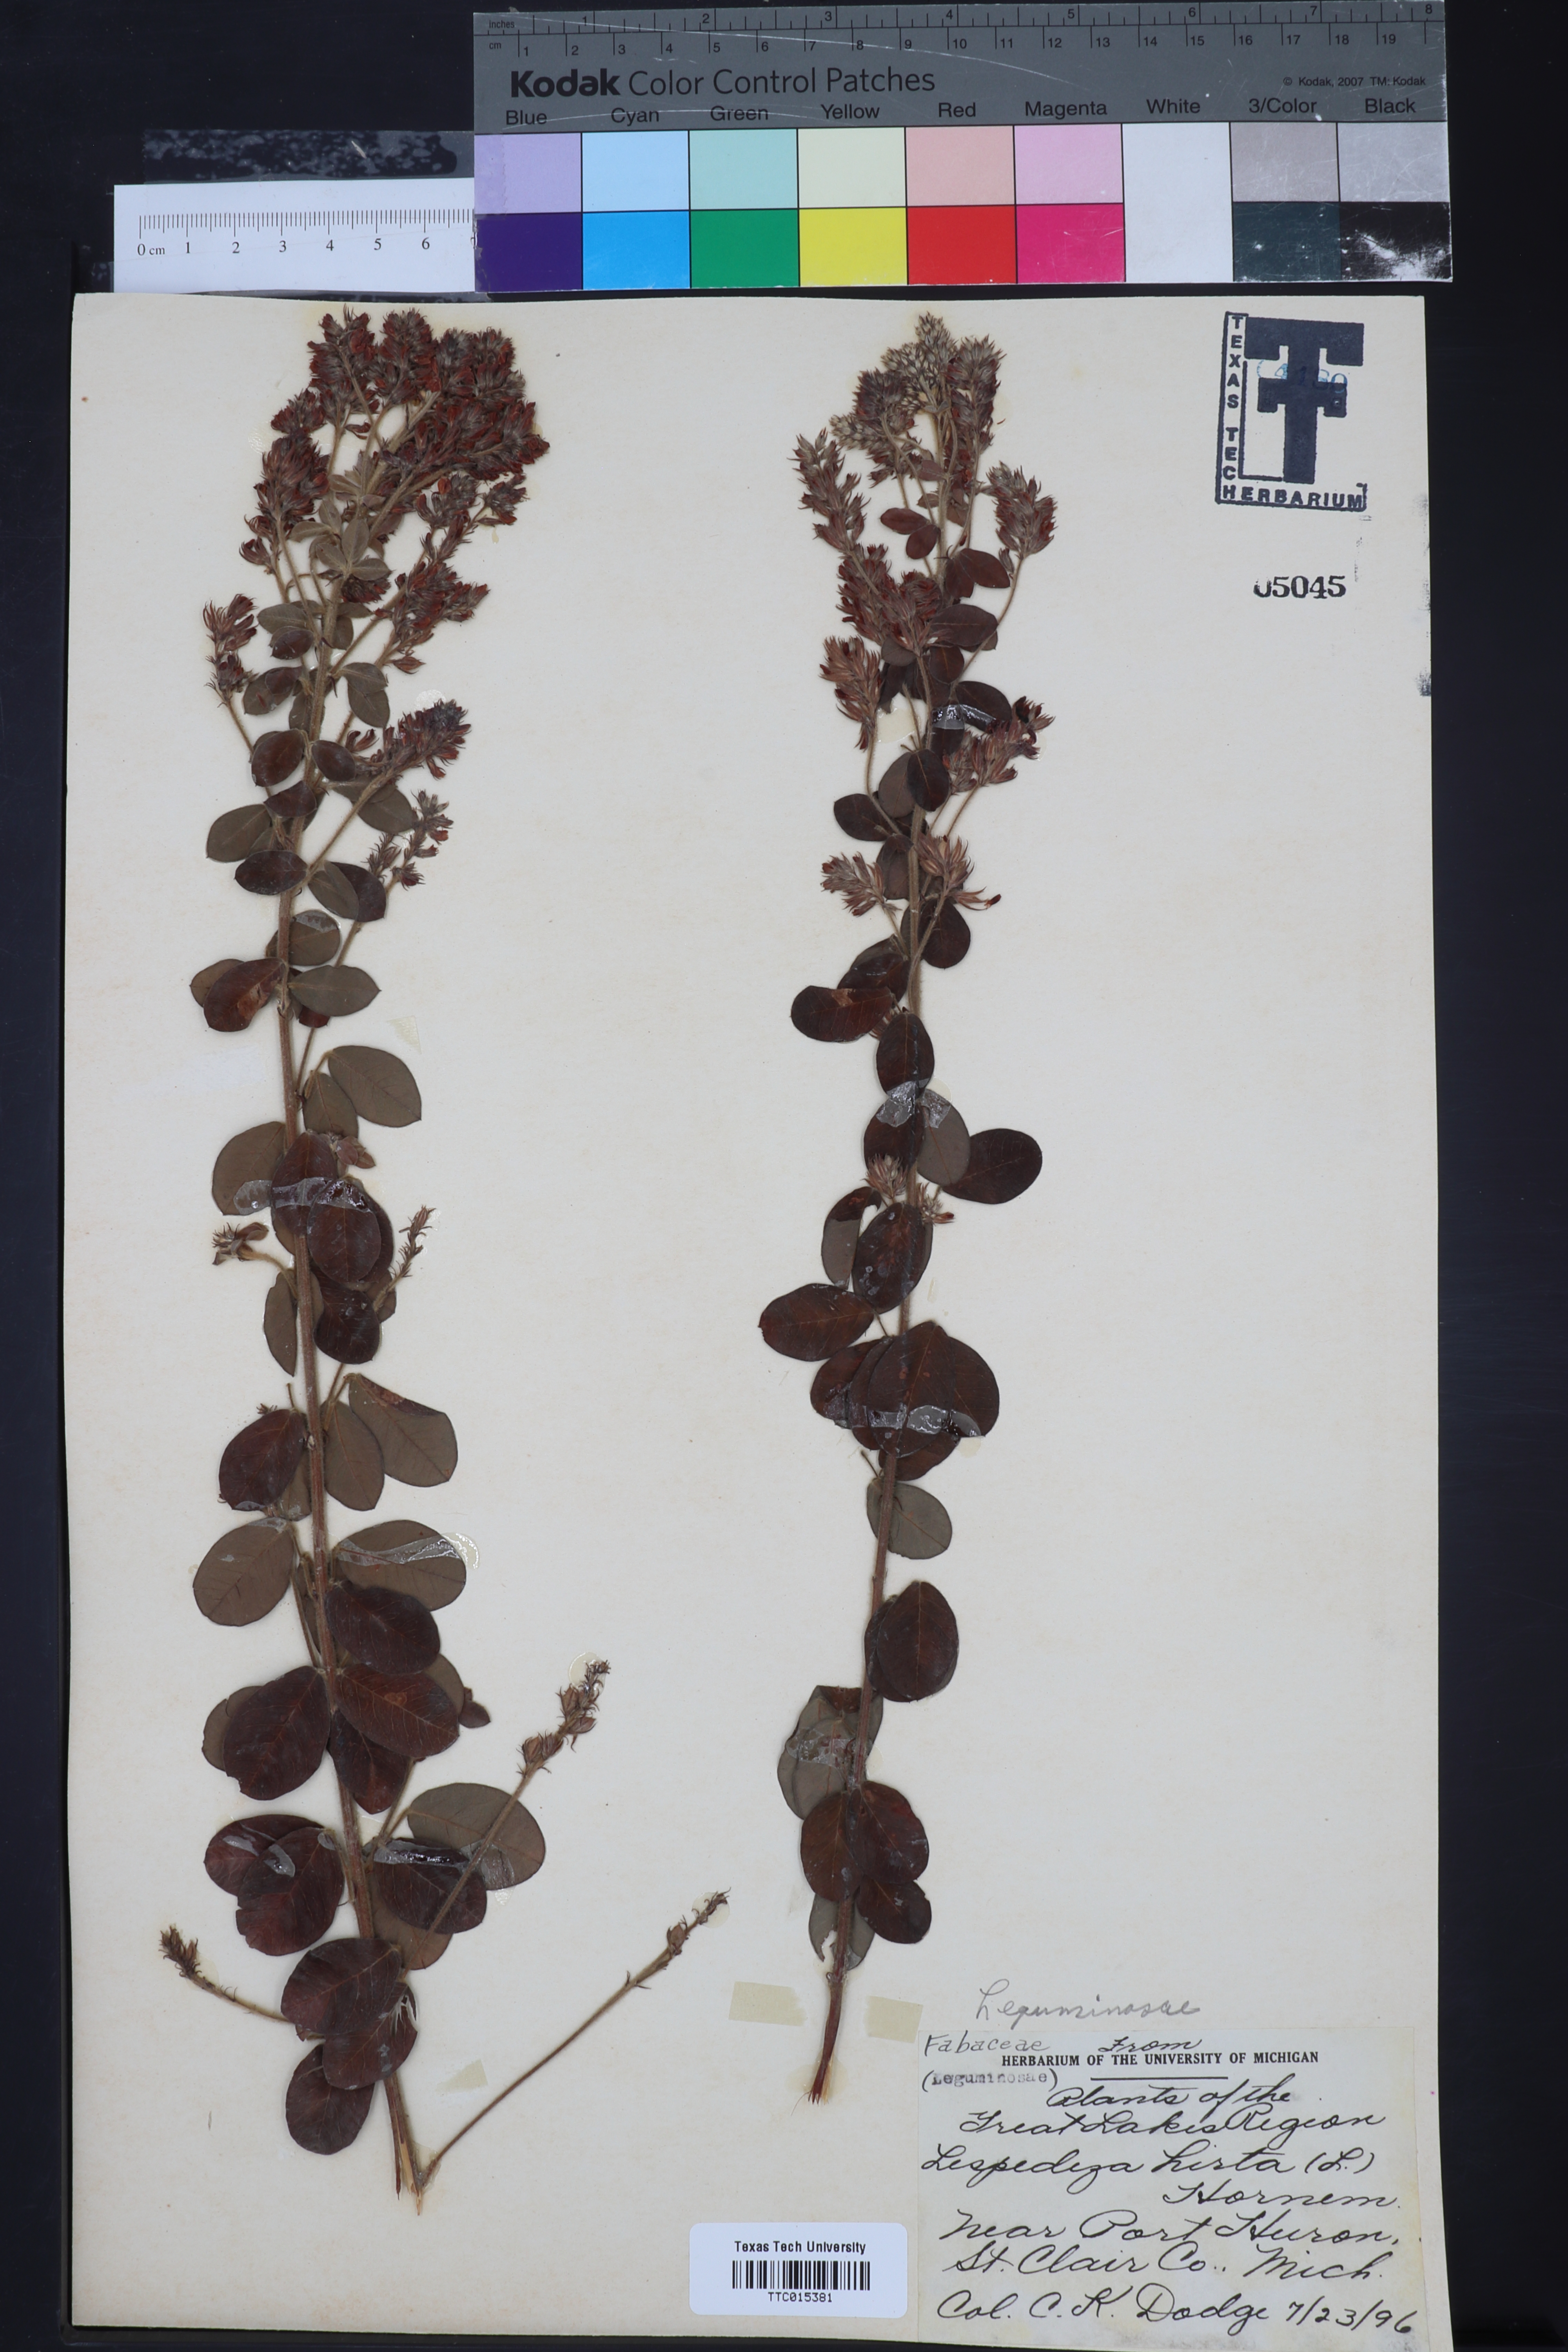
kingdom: Plantae
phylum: Tracheophyta
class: Magnoliopsida
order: Fabales
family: Fabaceae
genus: Lespedeza
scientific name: Lespedeza violacea
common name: Wand bush-clover
